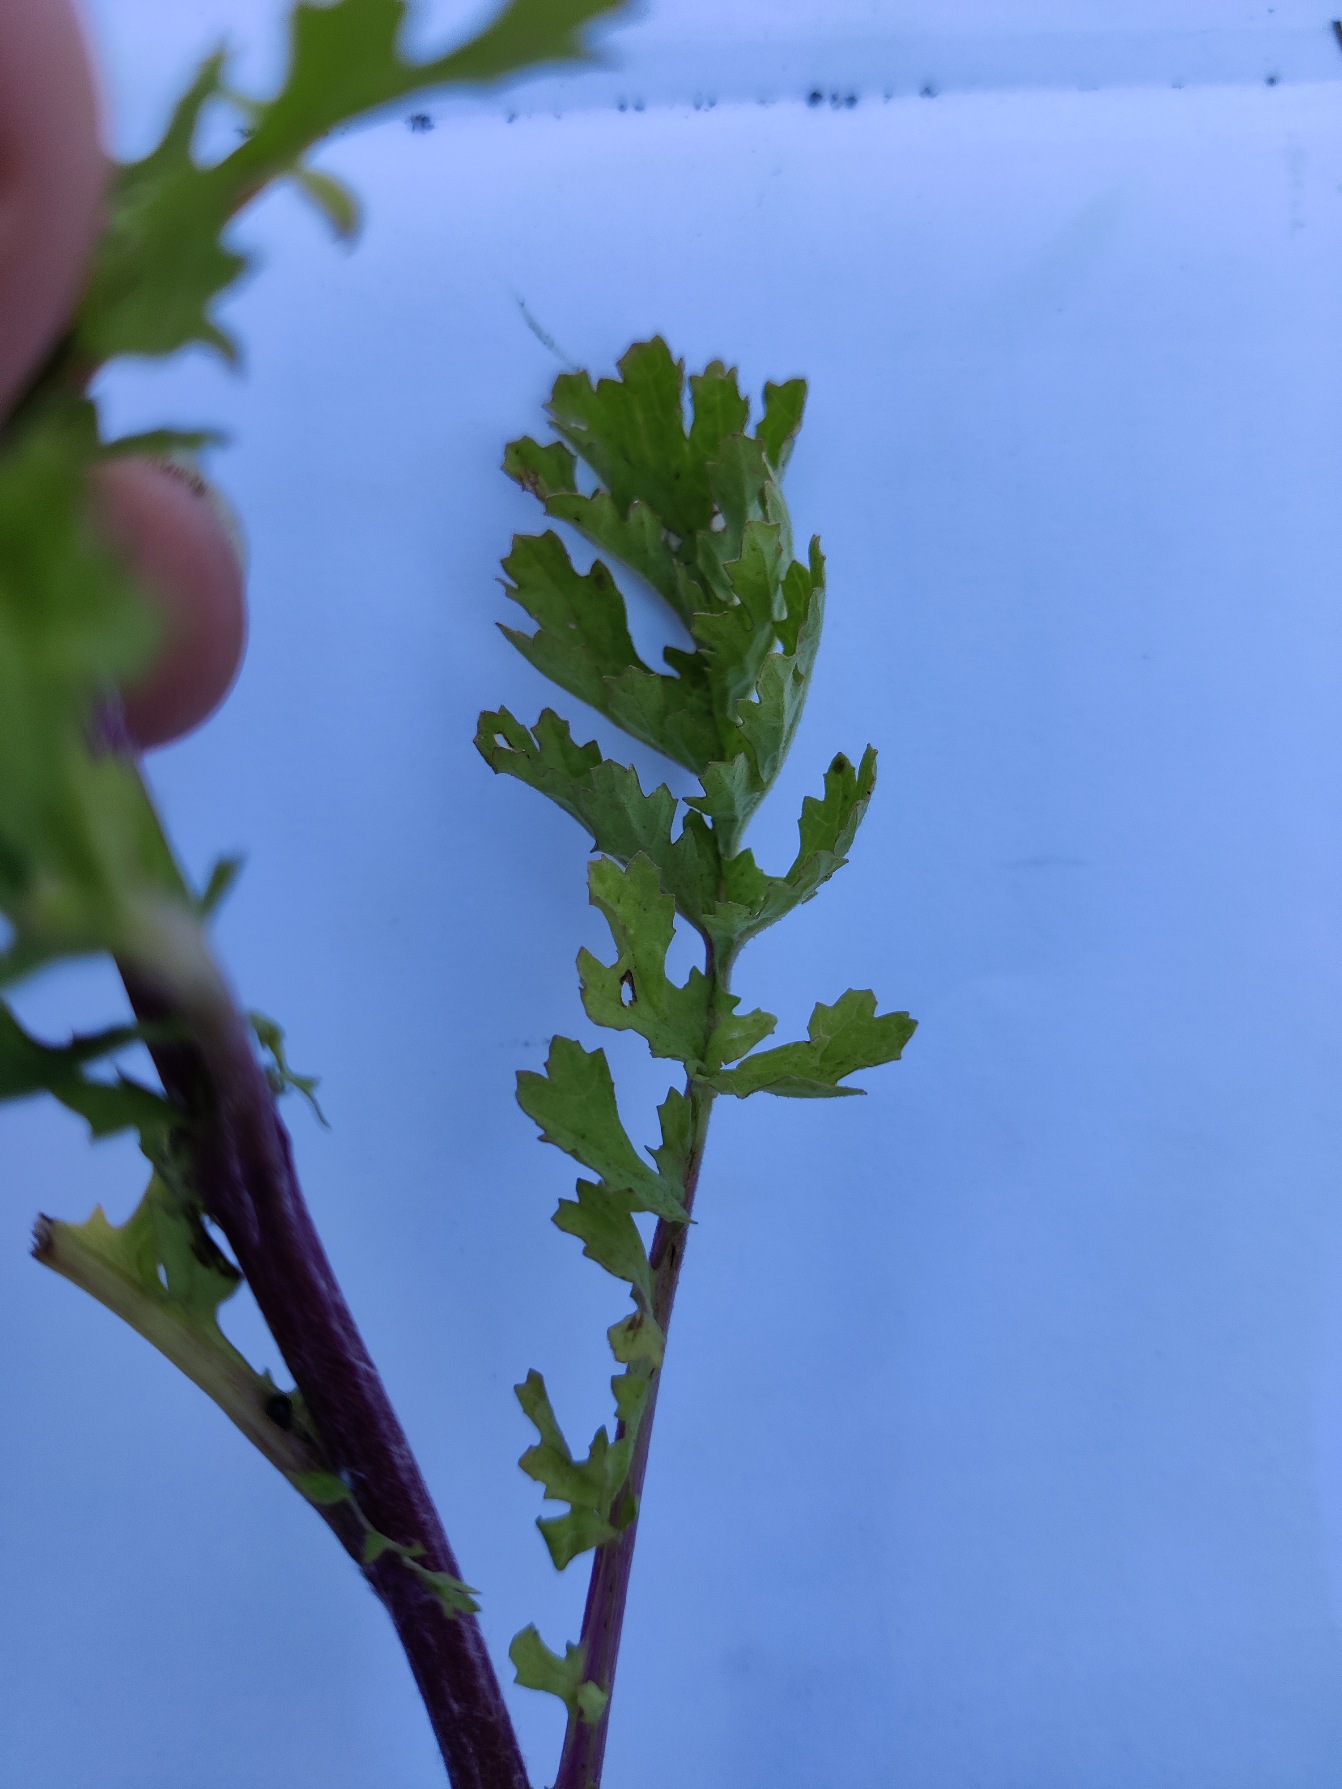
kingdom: Plantae
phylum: Tracheophyta
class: Magnoliopsida
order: Asterales
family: Asteraceae
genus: Jacobaea
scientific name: Jacobaea vulgaris
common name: Eng-brandbæger
